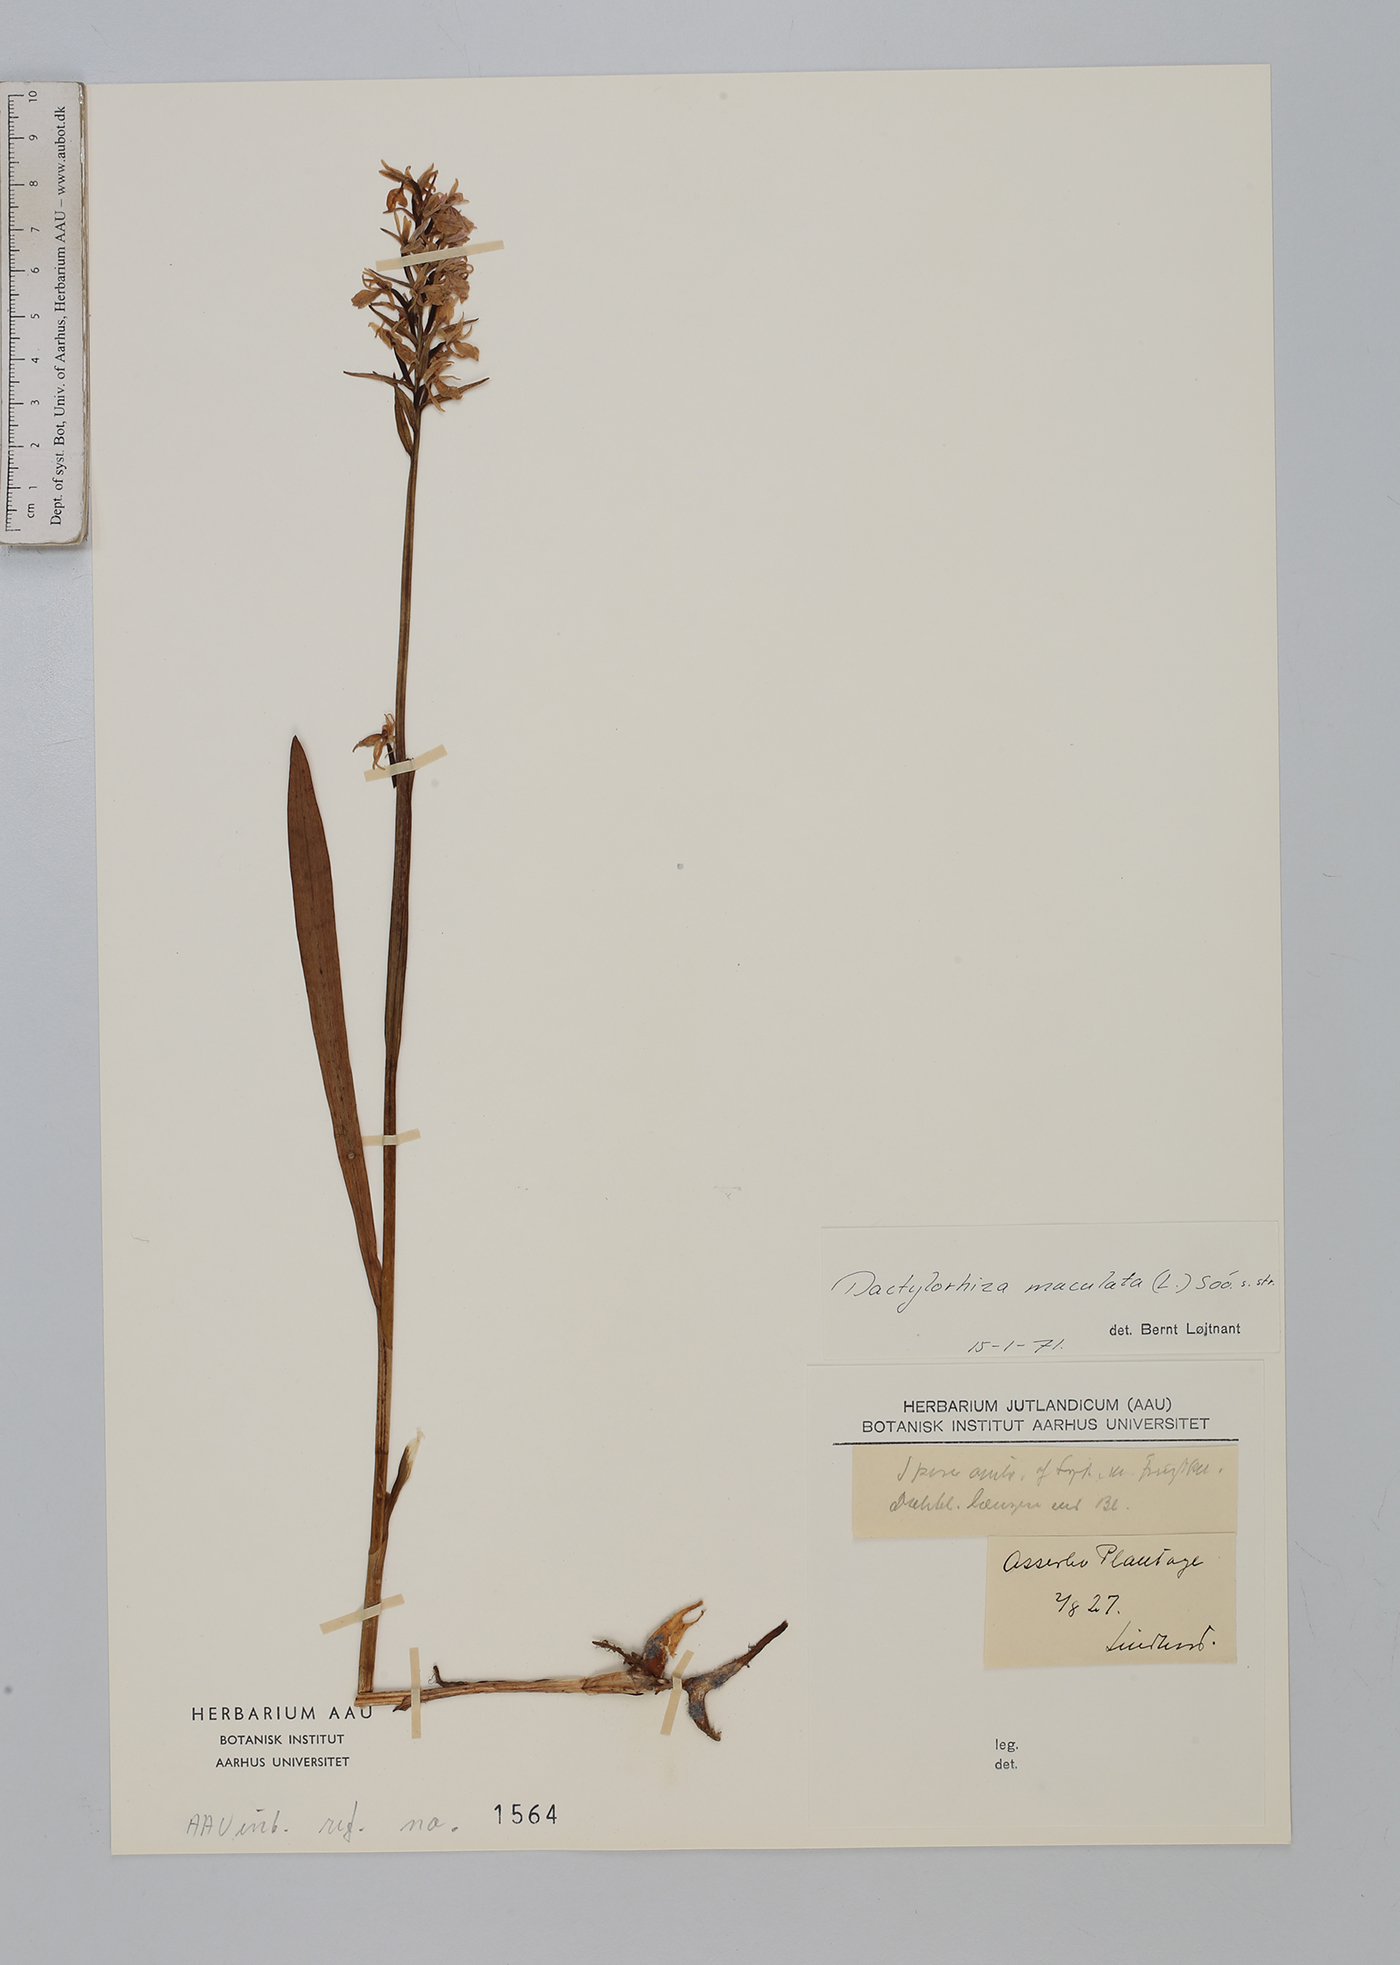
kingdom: Plantae
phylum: Tracheophyta
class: Liliopsida
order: Asparagales
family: Orchidaceae
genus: Dactylorhiza
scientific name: Dactylorhiza maculata
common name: Heath spotted-orchid
